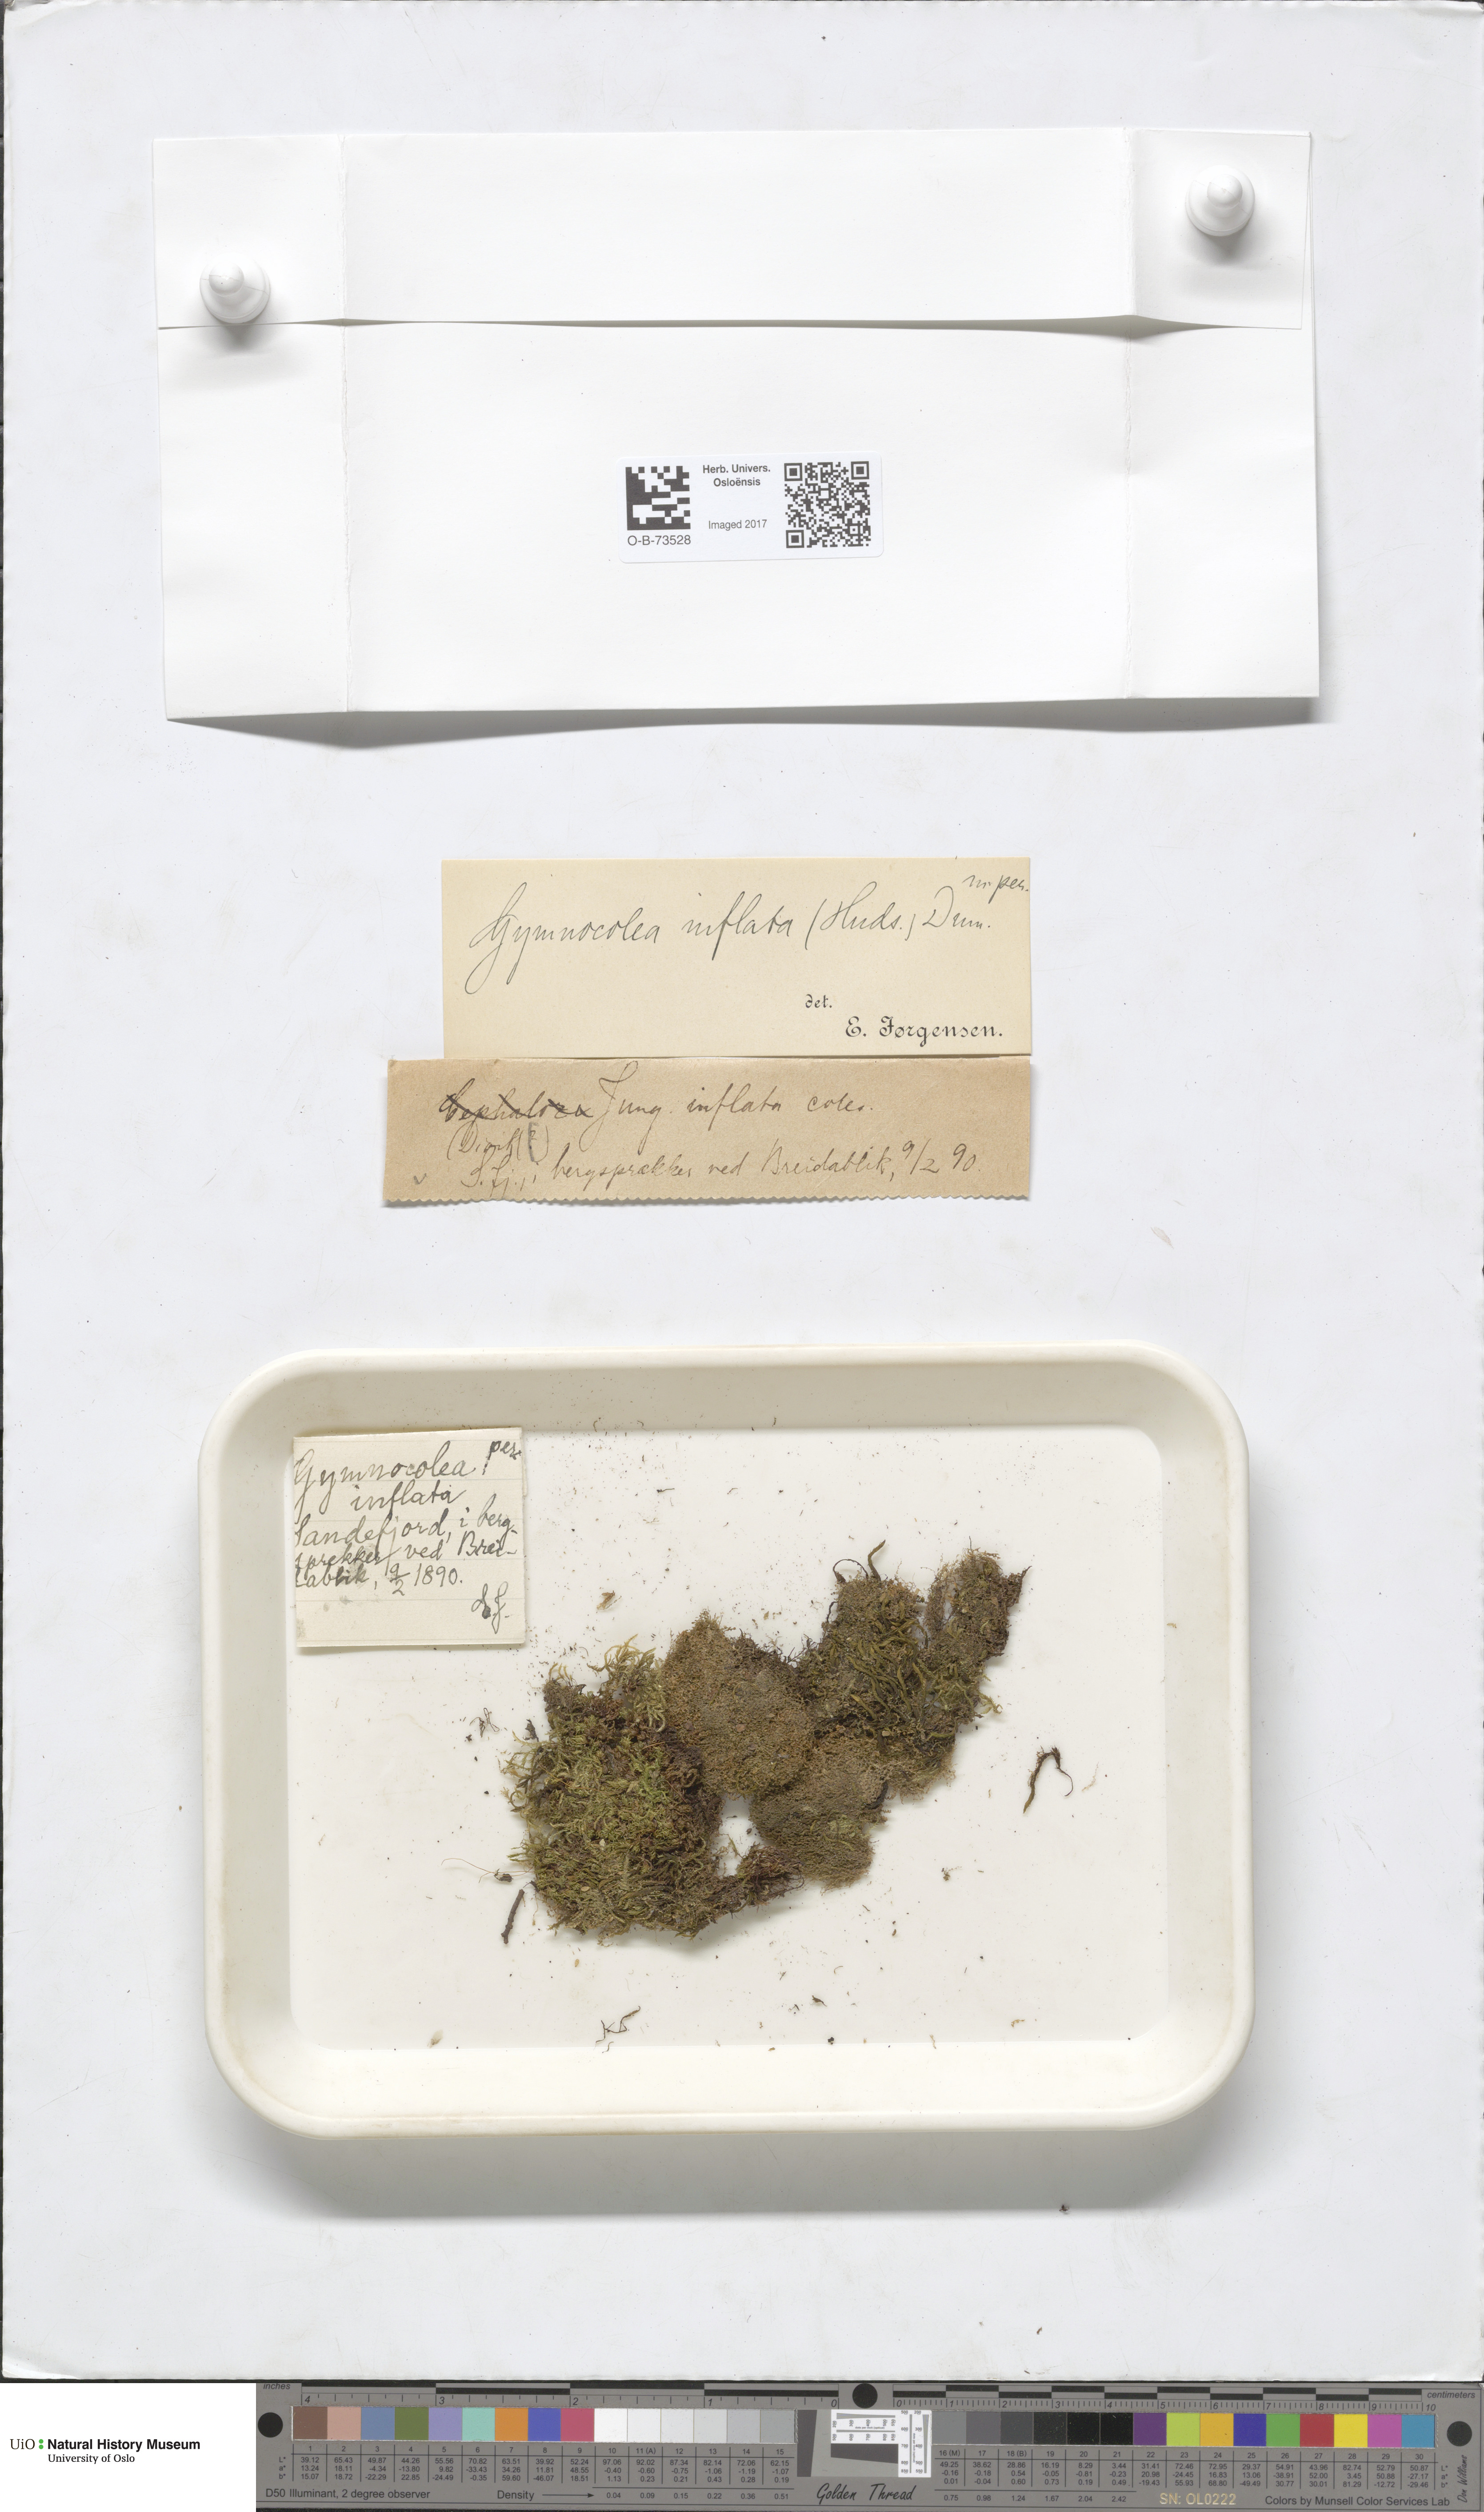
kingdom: Plantae
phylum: Marchantiophyta
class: Jungermanniopsida
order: Jungermanniales
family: Anastrophyllaceae
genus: Gymnocolea
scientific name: Gymnocolea inflata
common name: Inflated notchwort
